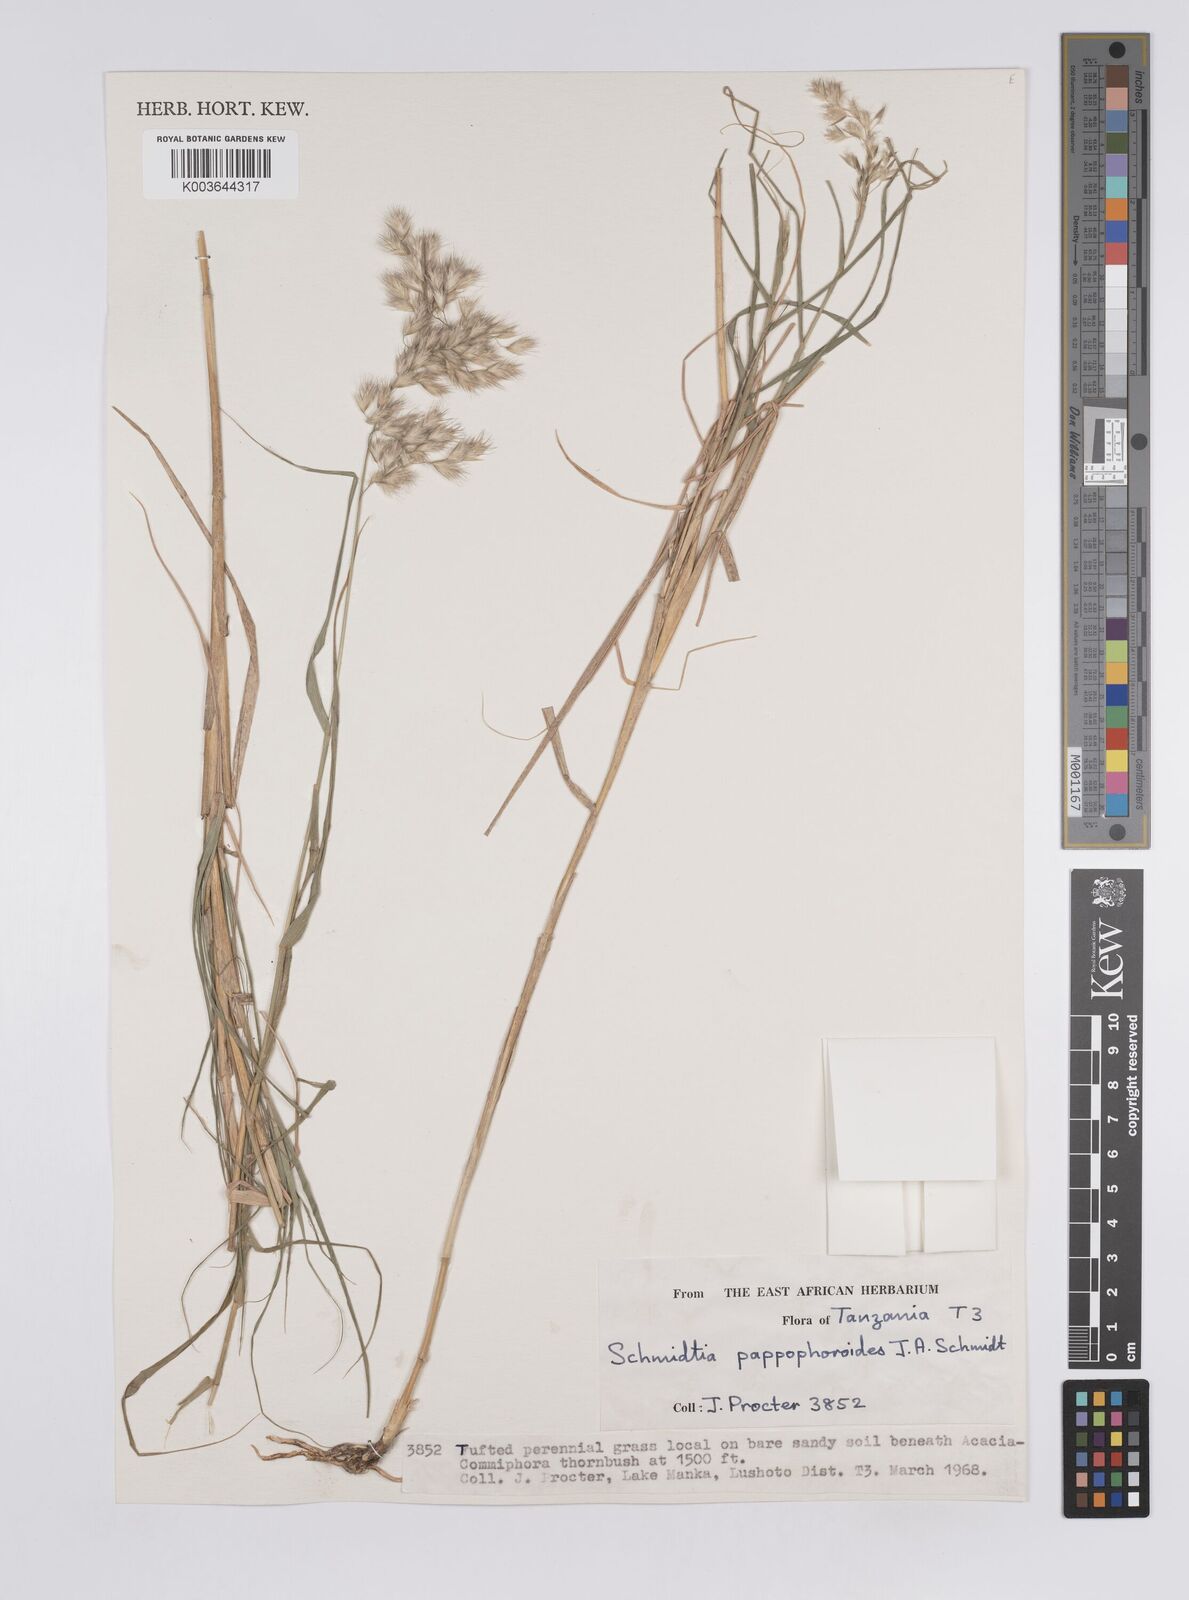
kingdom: Plantae
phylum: Tracheophyta
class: Liliopsida
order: Poales
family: Poaceae
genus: Schmidtia
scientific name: Schmidtia pappophoroides
